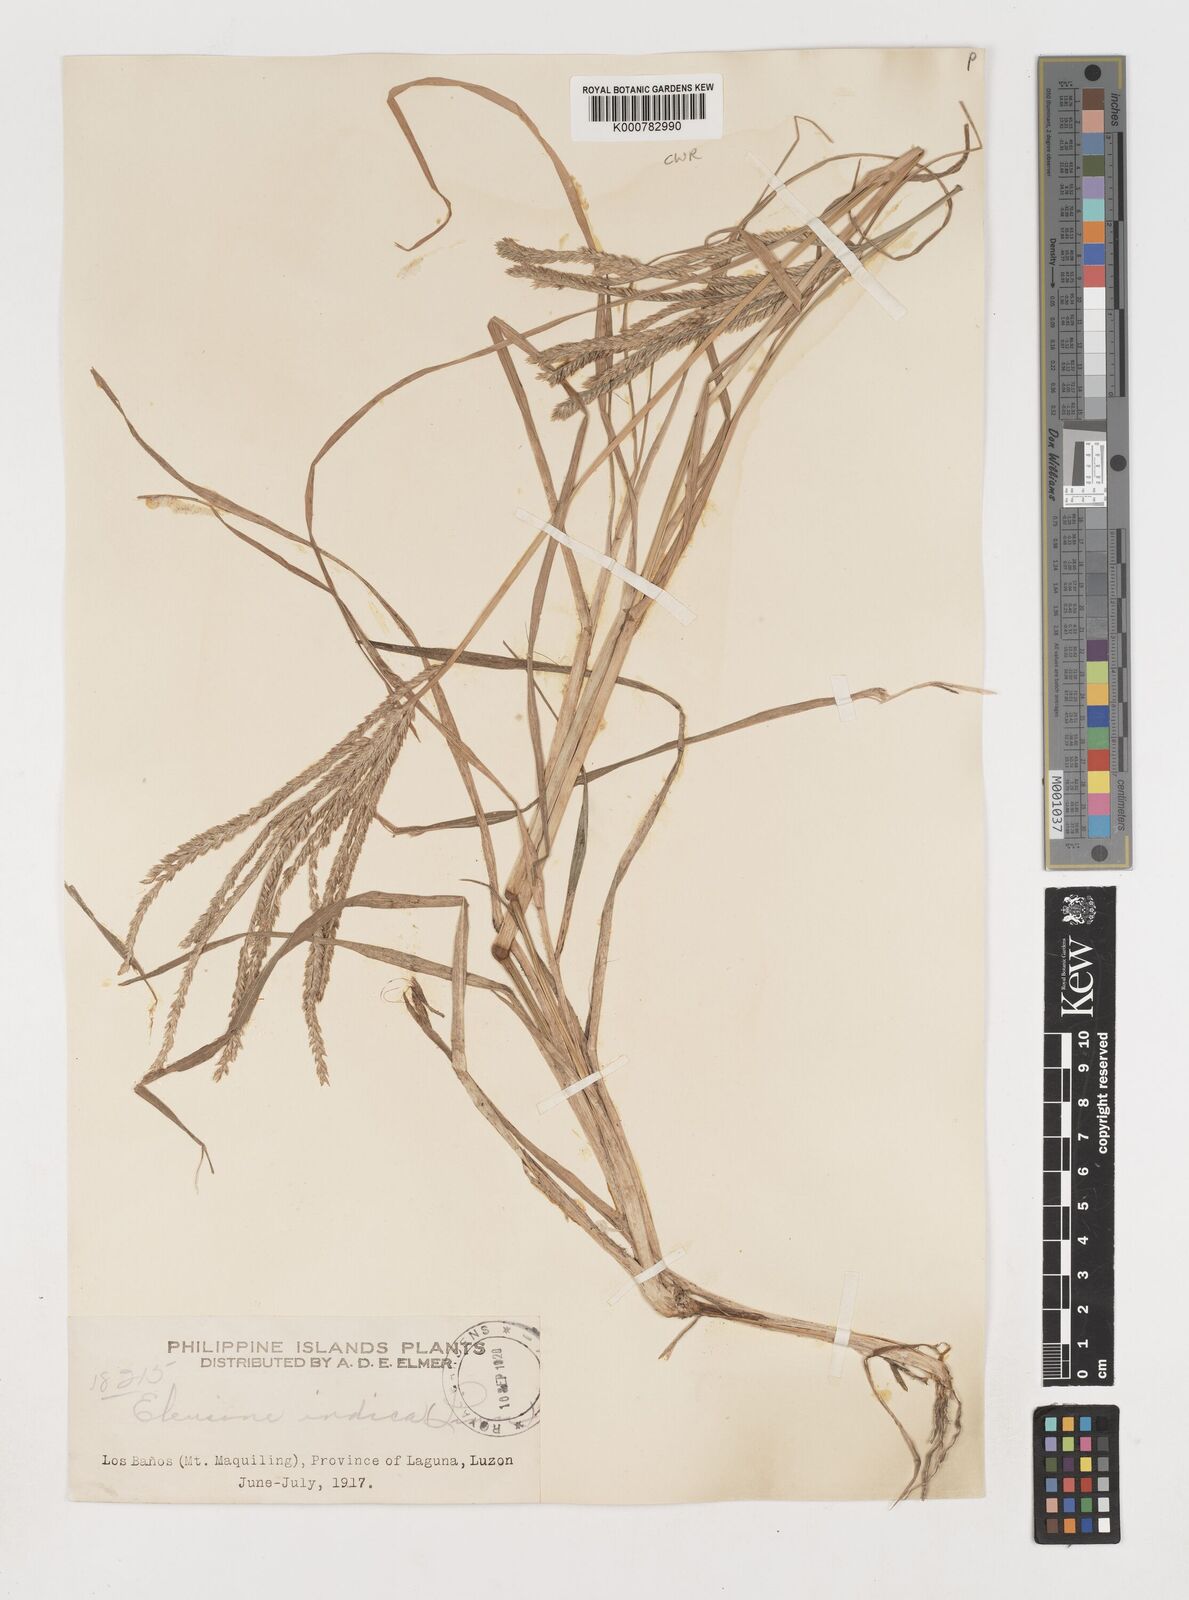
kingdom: Plantae
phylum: Tracheophyta
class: Liliopsida
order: Poales
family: Poaceae
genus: Eleusine
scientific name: Eleusine indica
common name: Yard-grass
